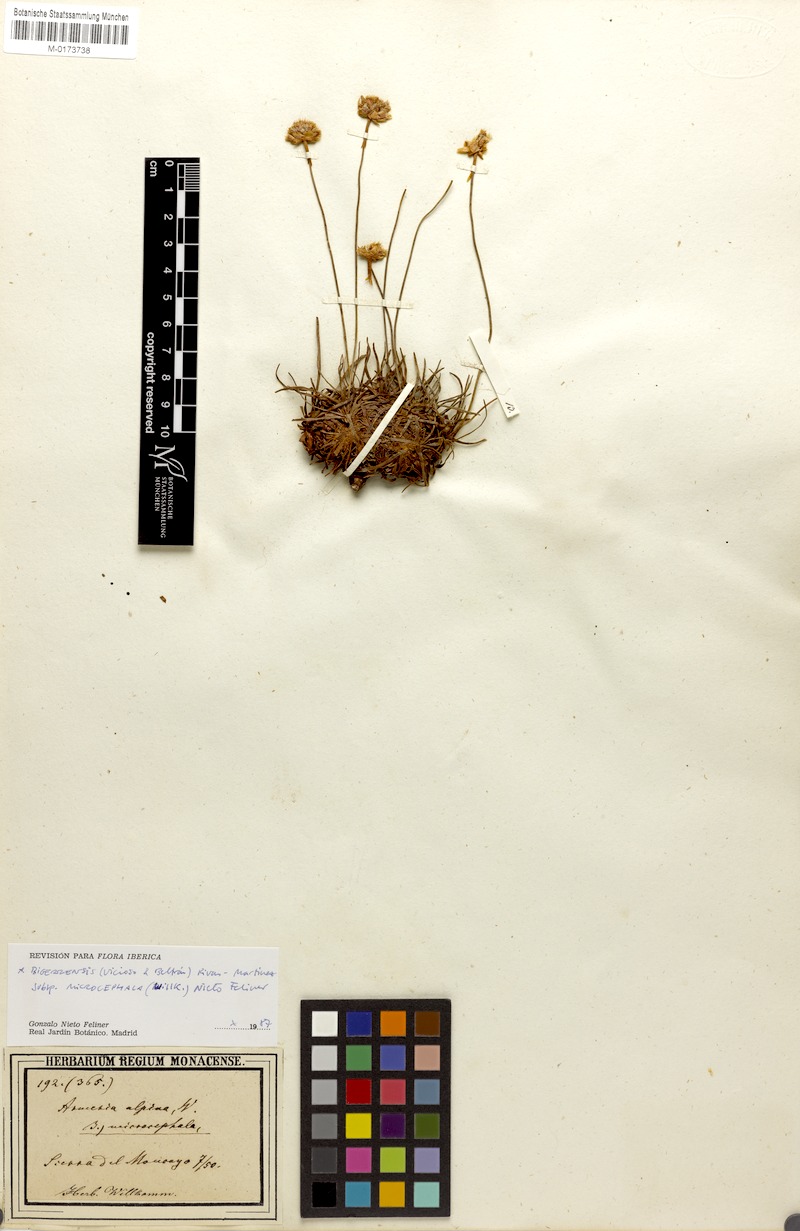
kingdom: Plantae
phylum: Tracheophyta
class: Magnoliopsida
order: Caryophyllales
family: Plumbaginaceae
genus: Armeria
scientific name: Armeria bigerrensis
